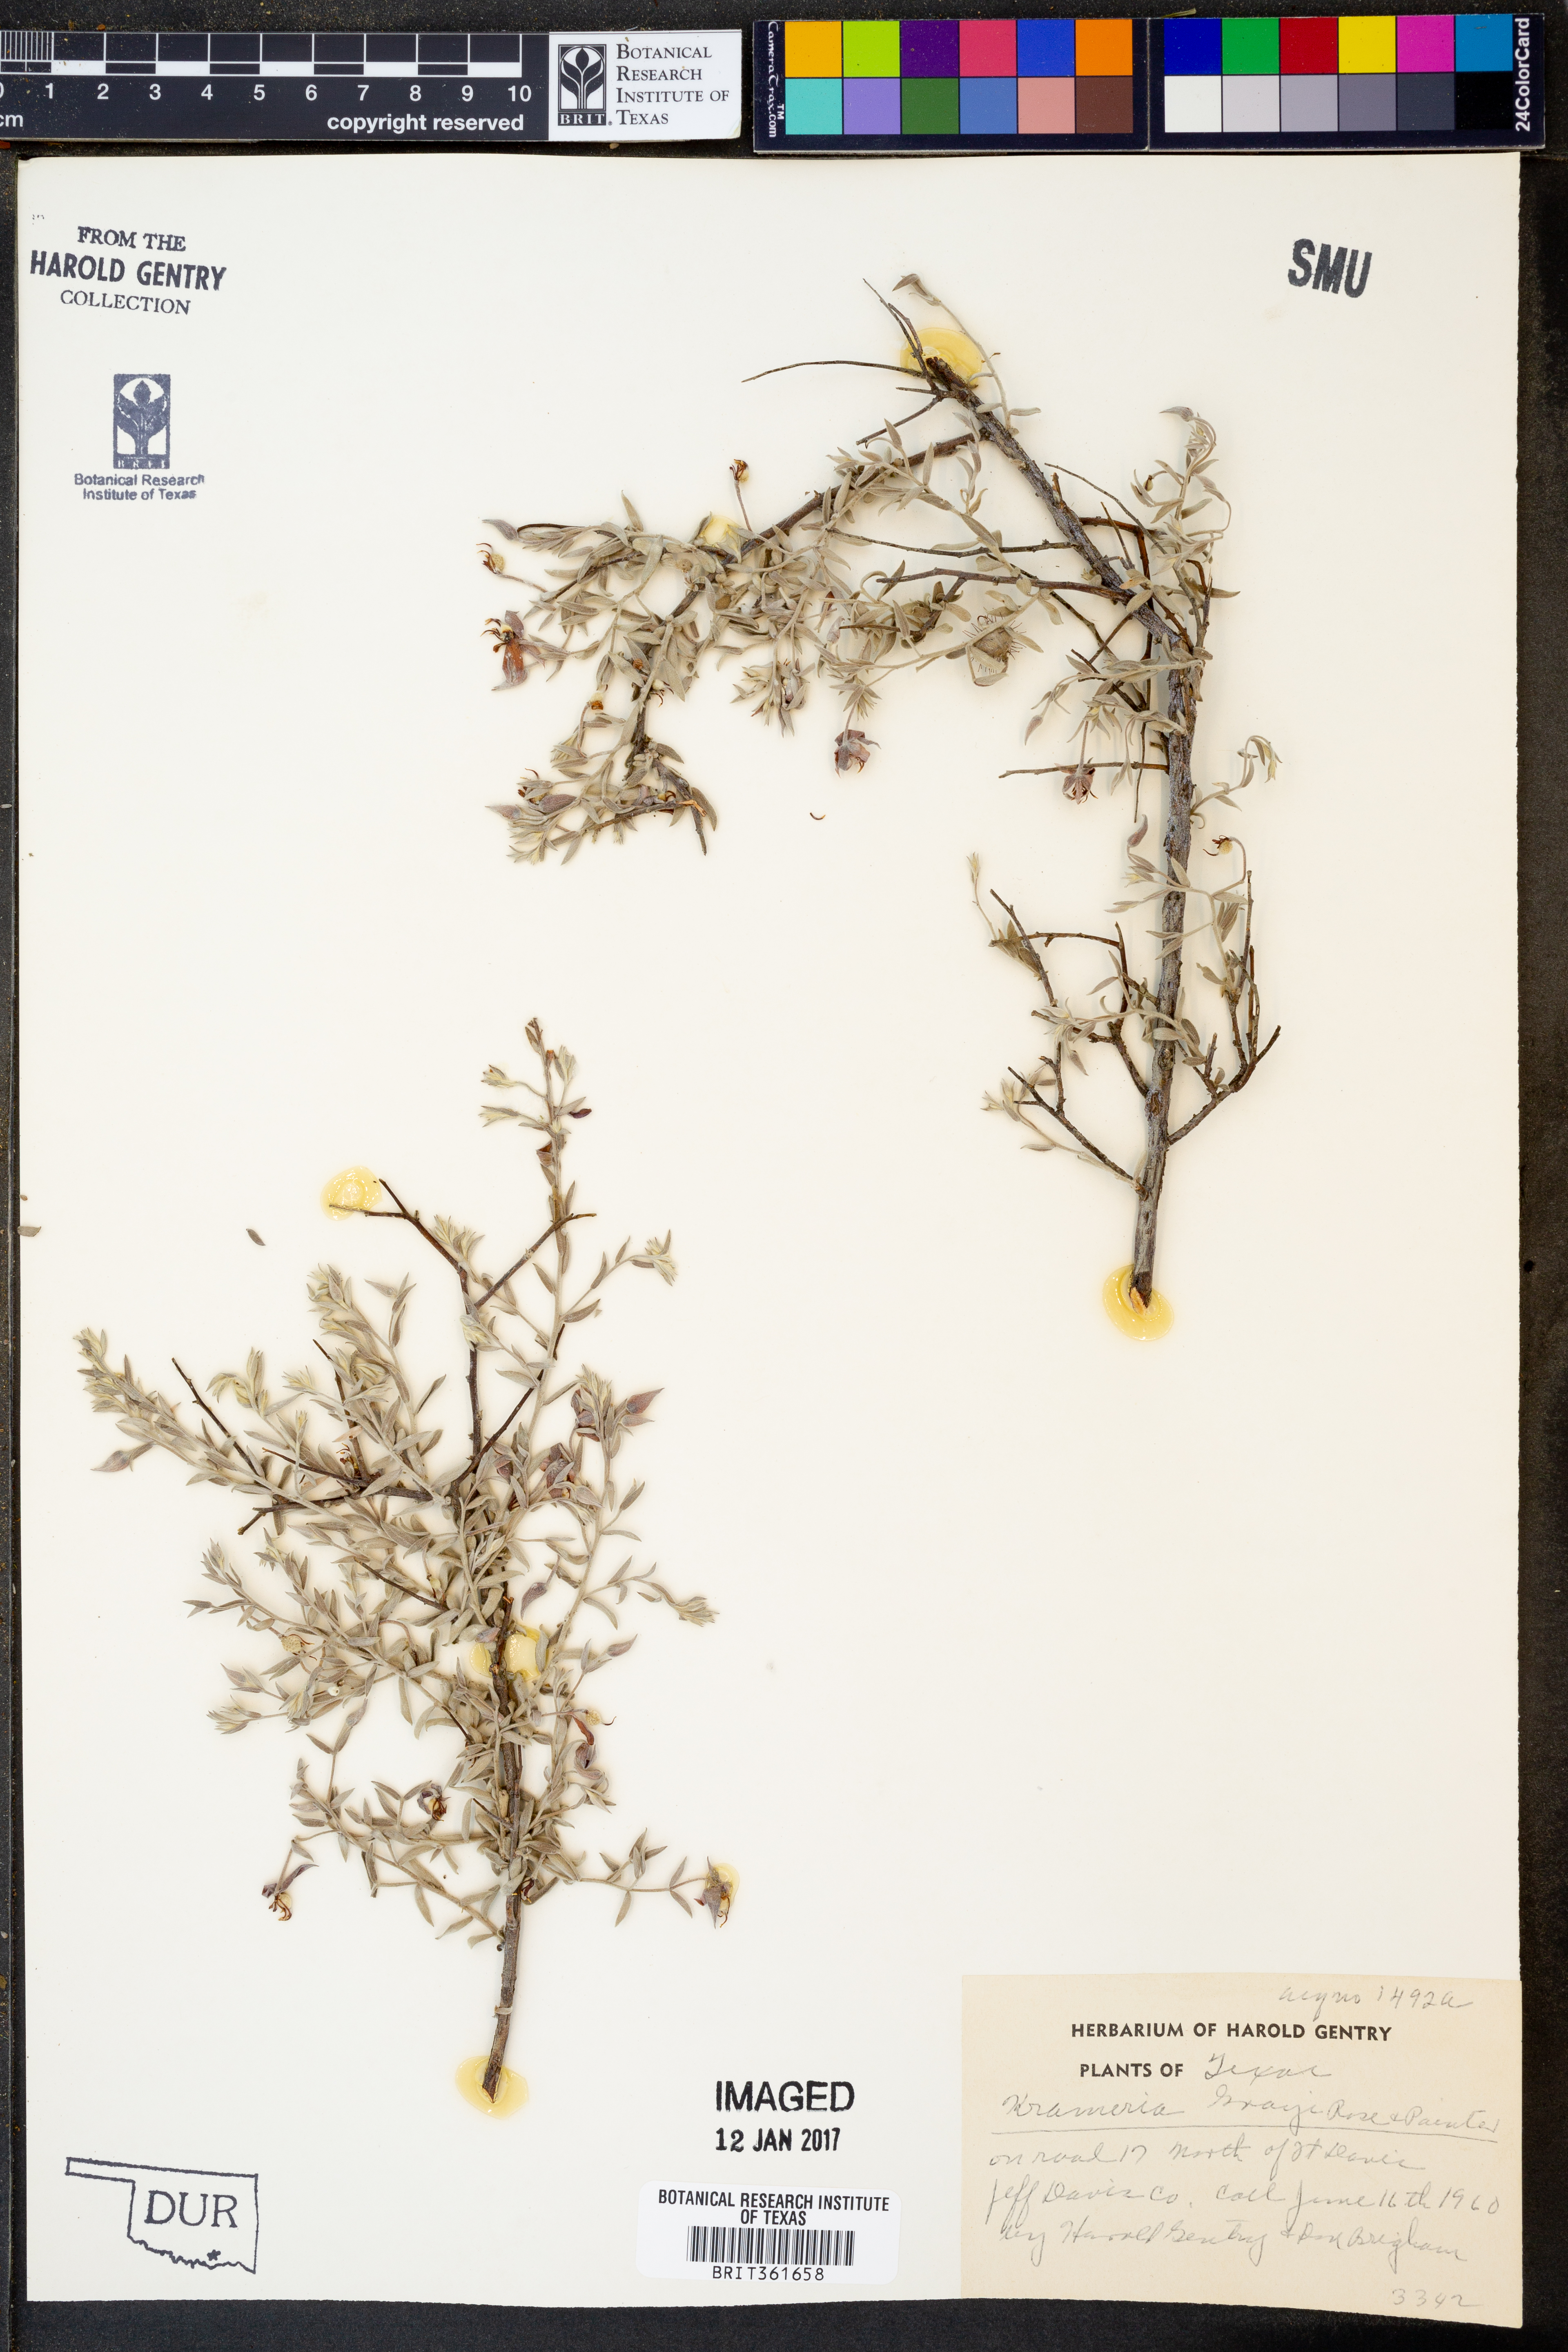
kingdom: Plantae
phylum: Tracheophyta
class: Magnoliopsida
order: Zygophyllales
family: Krameriaceae
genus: Krameria
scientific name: Krameria bicolor
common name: White ratany
